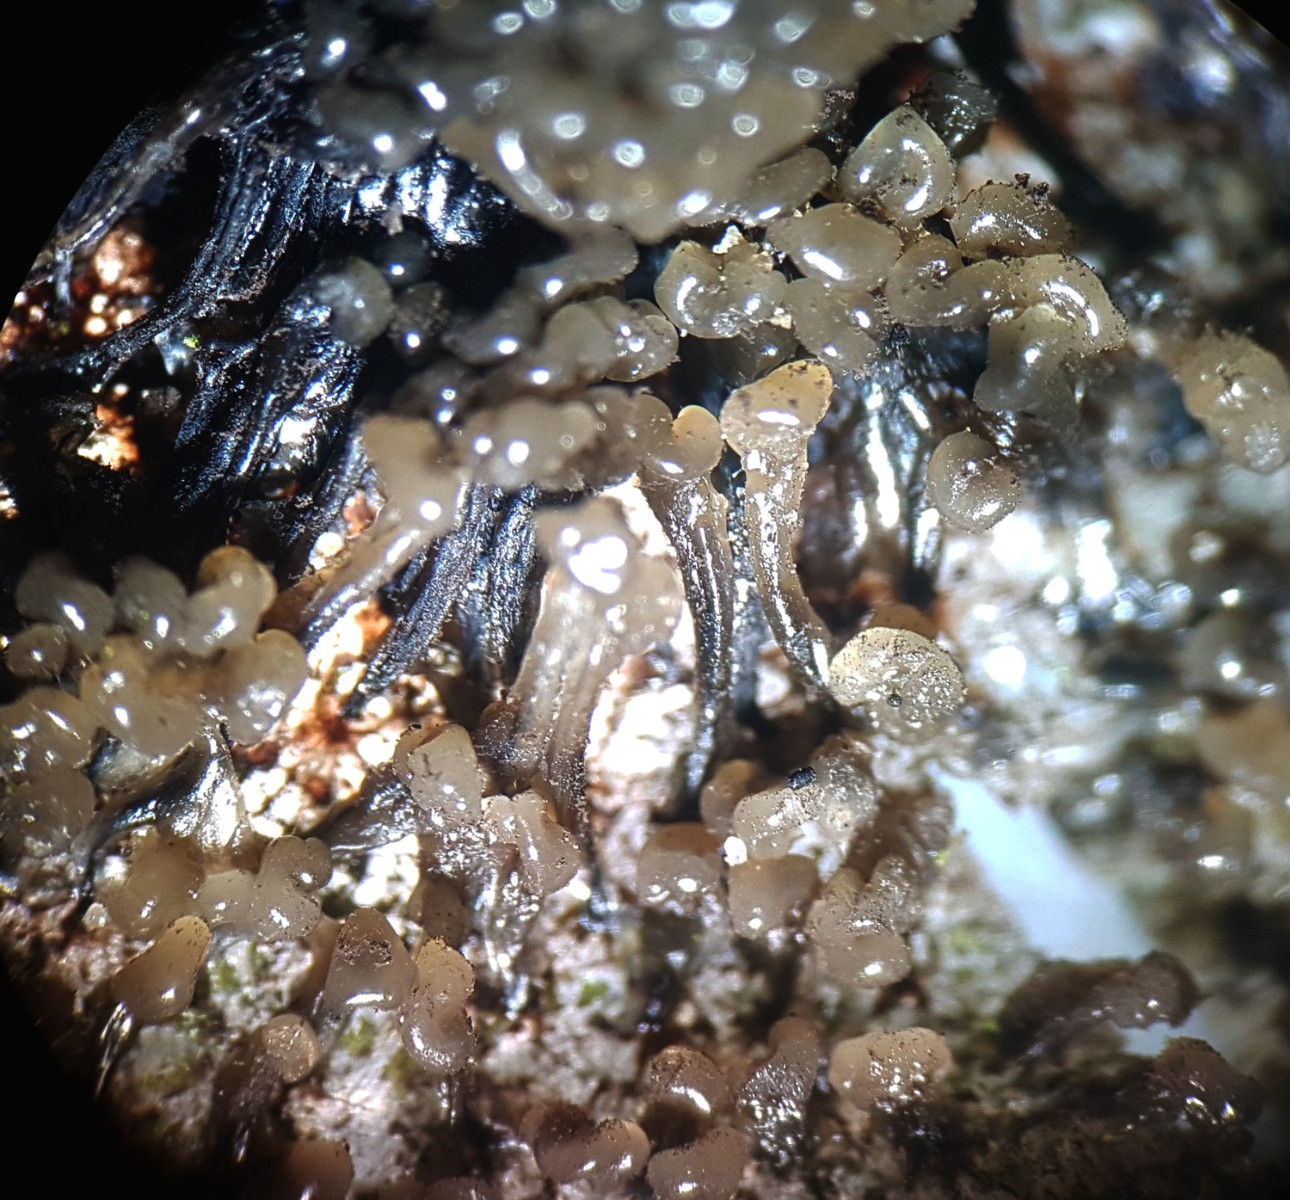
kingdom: Protozoa
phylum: Mycetozoa
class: Myxomycetes
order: Stemonitidales
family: Stemonitidaceae
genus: Stemonitis
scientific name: Stemonitis
